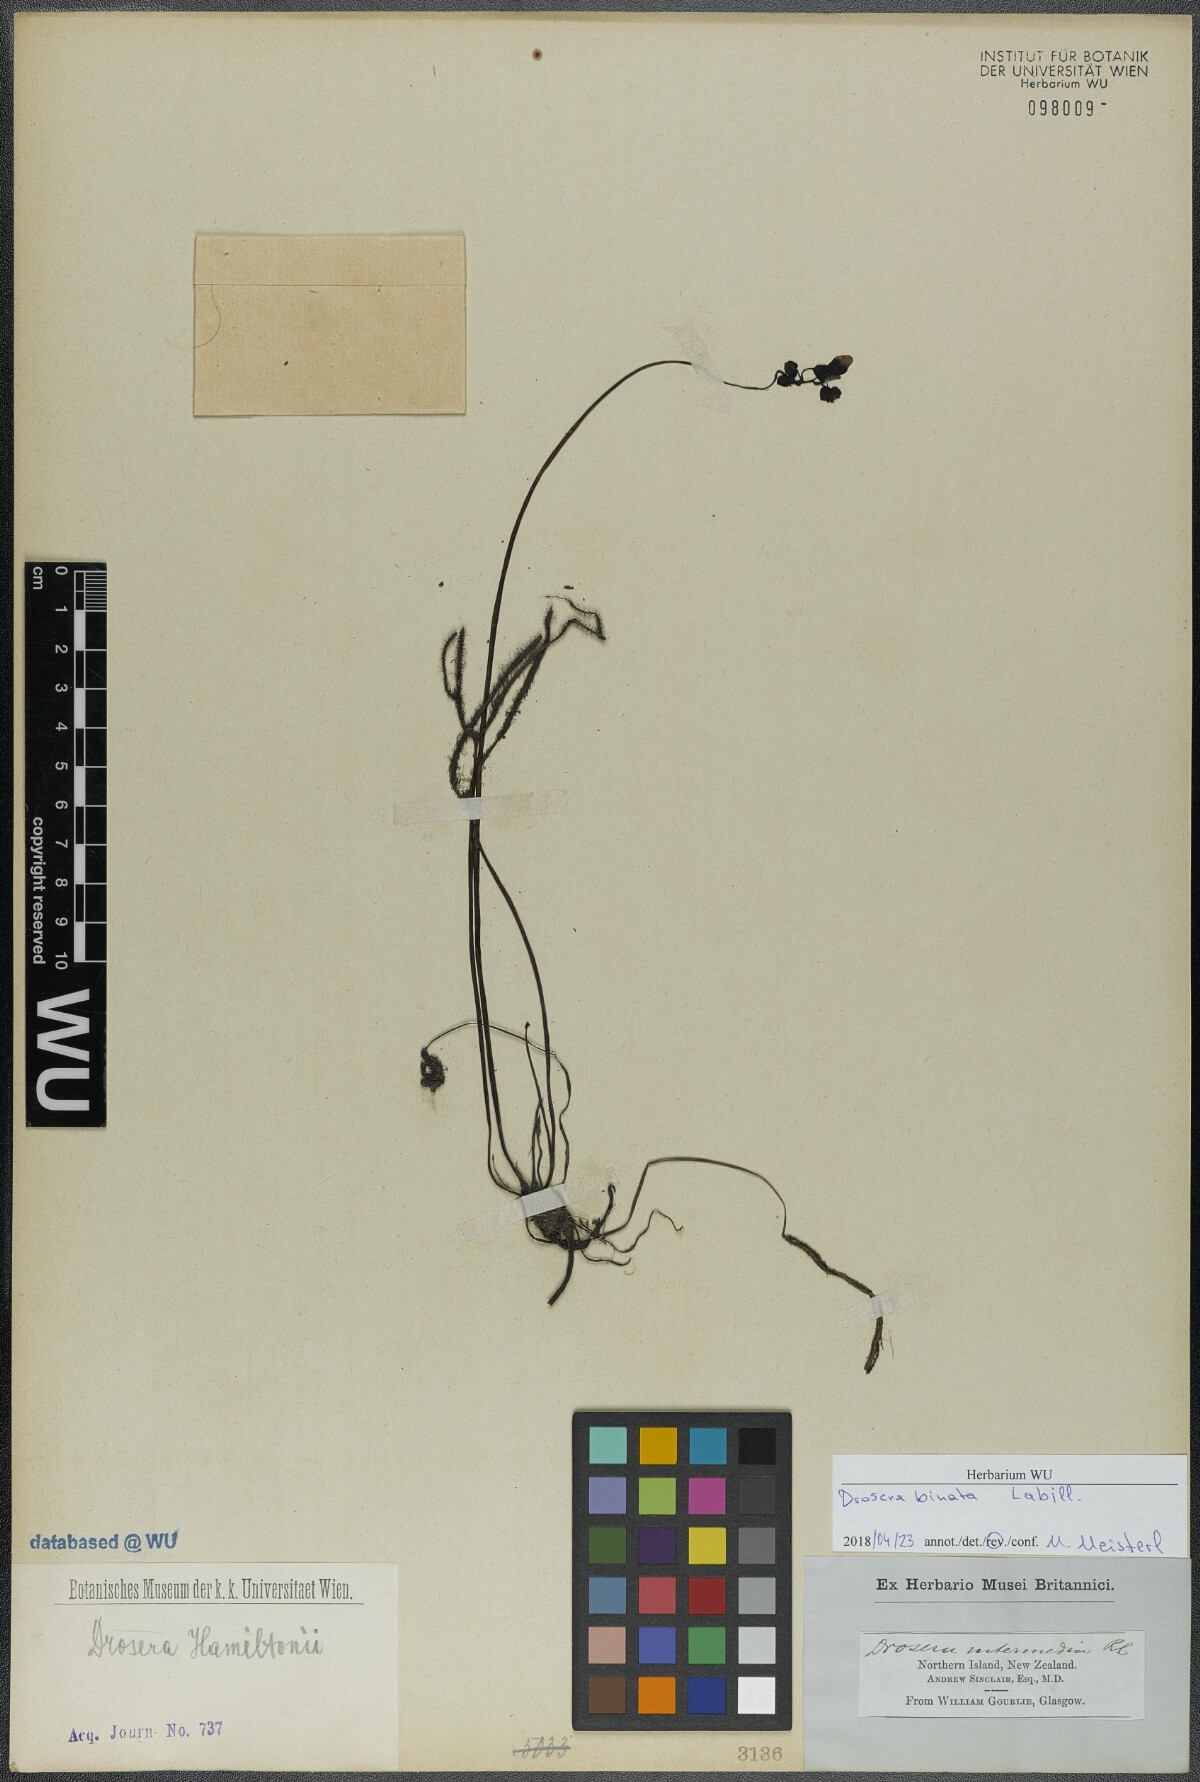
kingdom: Plantae
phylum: Tracheophyta
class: Magnoliopsida
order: Caryophyllales
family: Droseraceae
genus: Drosera
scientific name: Drosera binata
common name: Forked sundew
